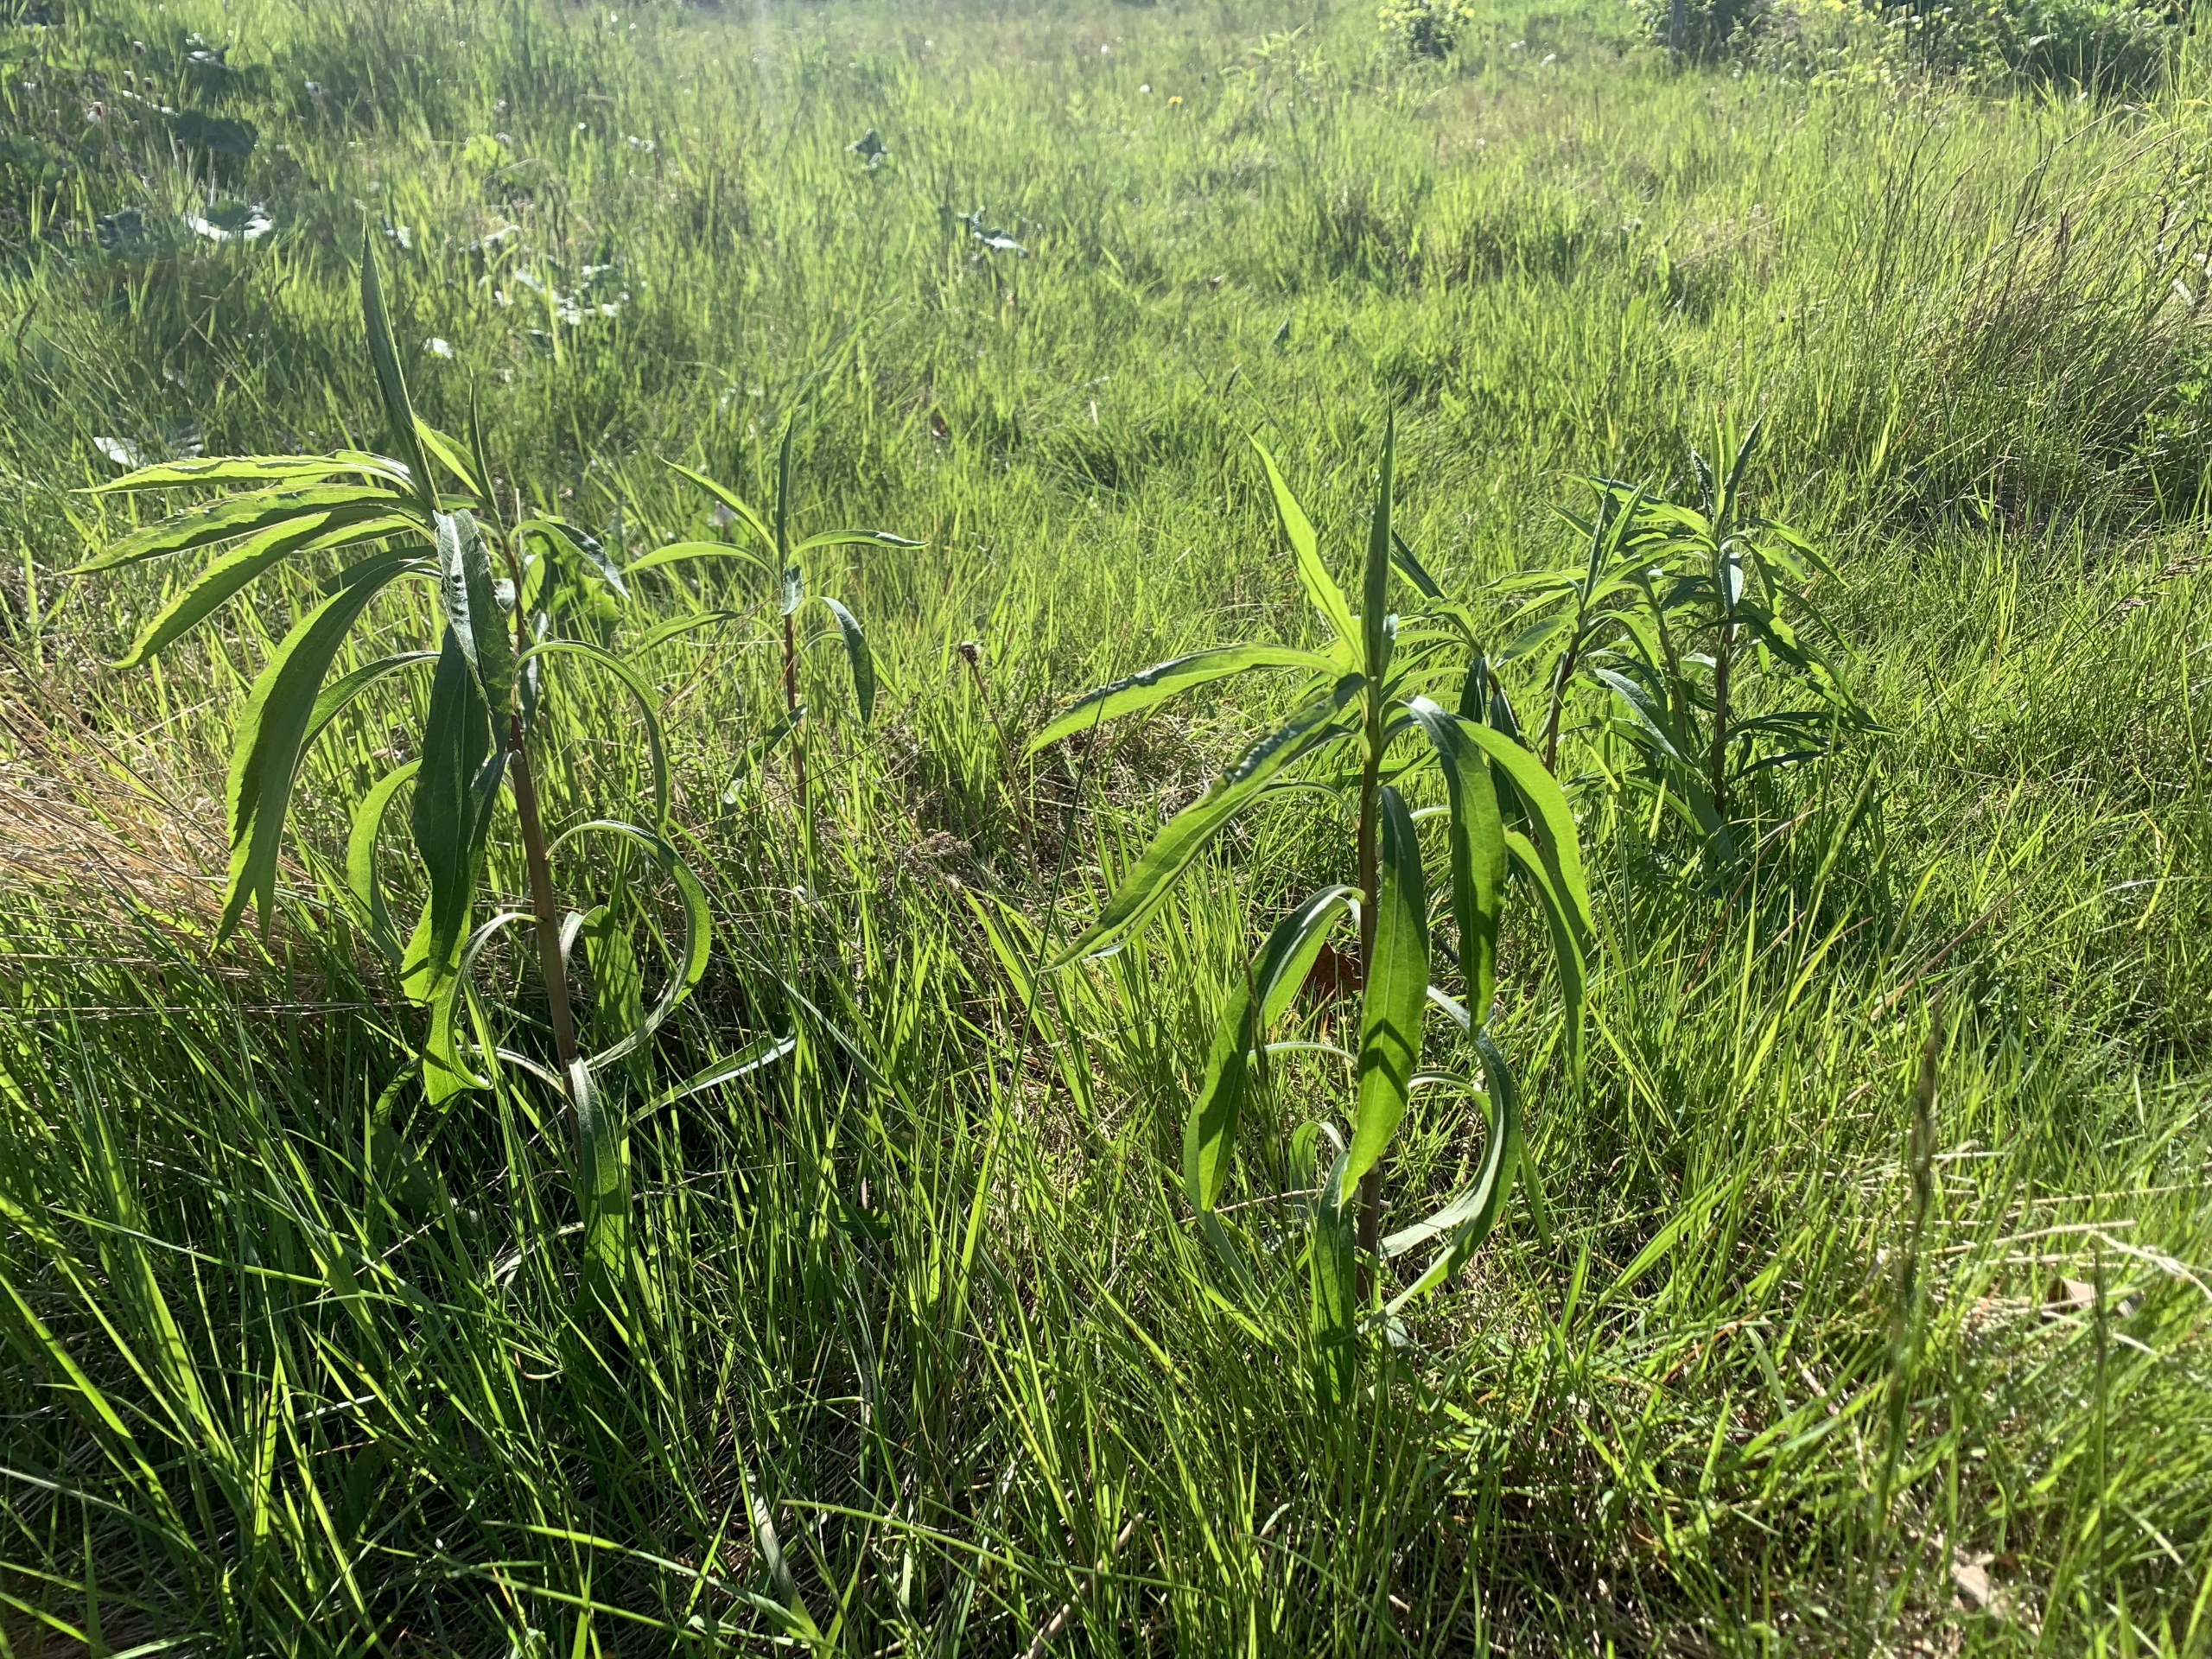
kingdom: Plantae
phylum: Tracheophyta
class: Magnoliopsida
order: Asterales
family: Asteraceae
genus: Solidago
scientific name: Solidago gigantea
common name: Sildig gyldenris
